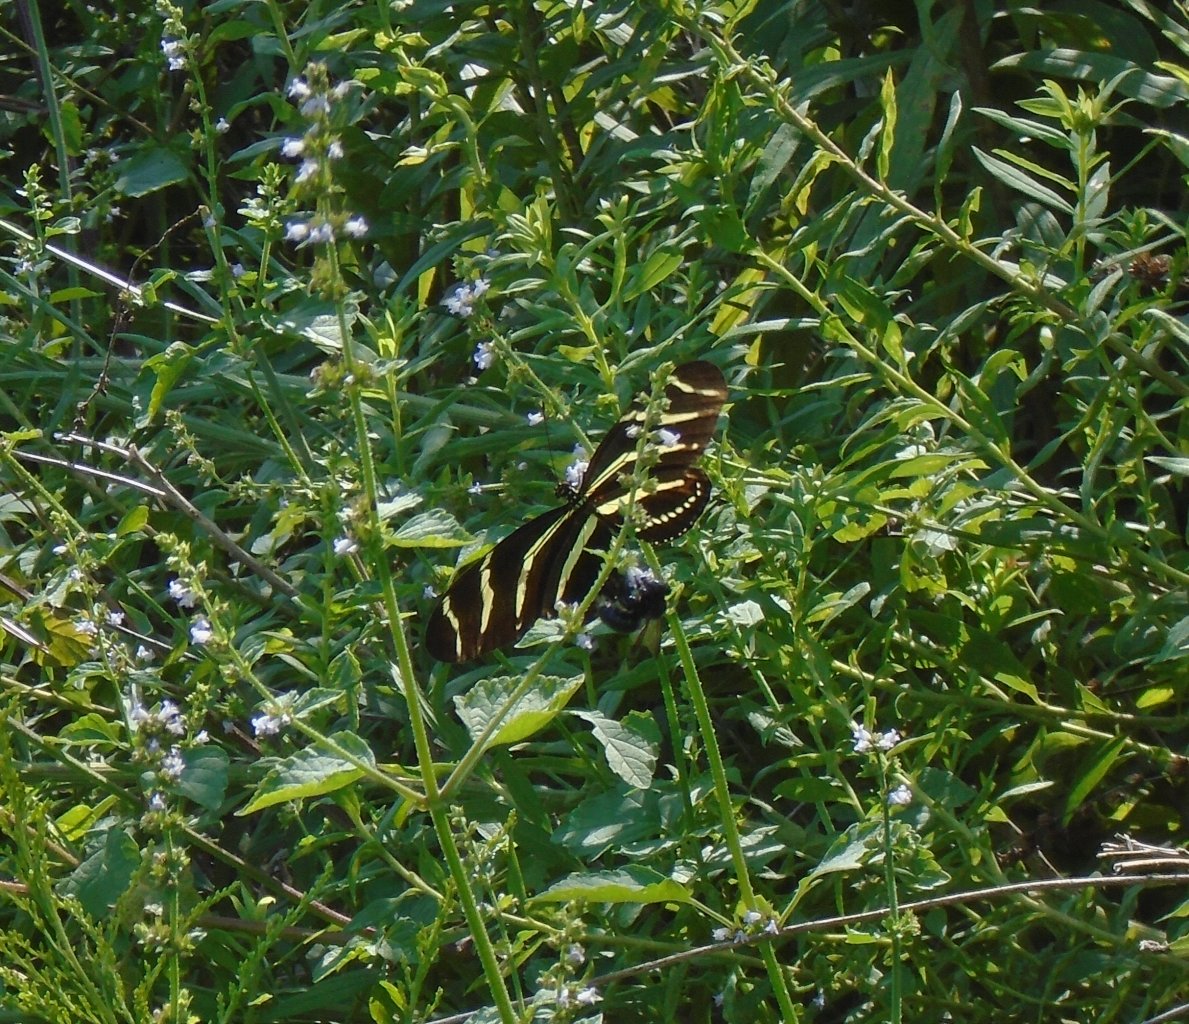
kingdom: Animalia
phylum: Arthropoda
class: Insecta
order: Lepidoptera
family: Nymphalidae
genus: Heliconius
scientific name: Heliconius charithonia
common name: Zebra Longwing
